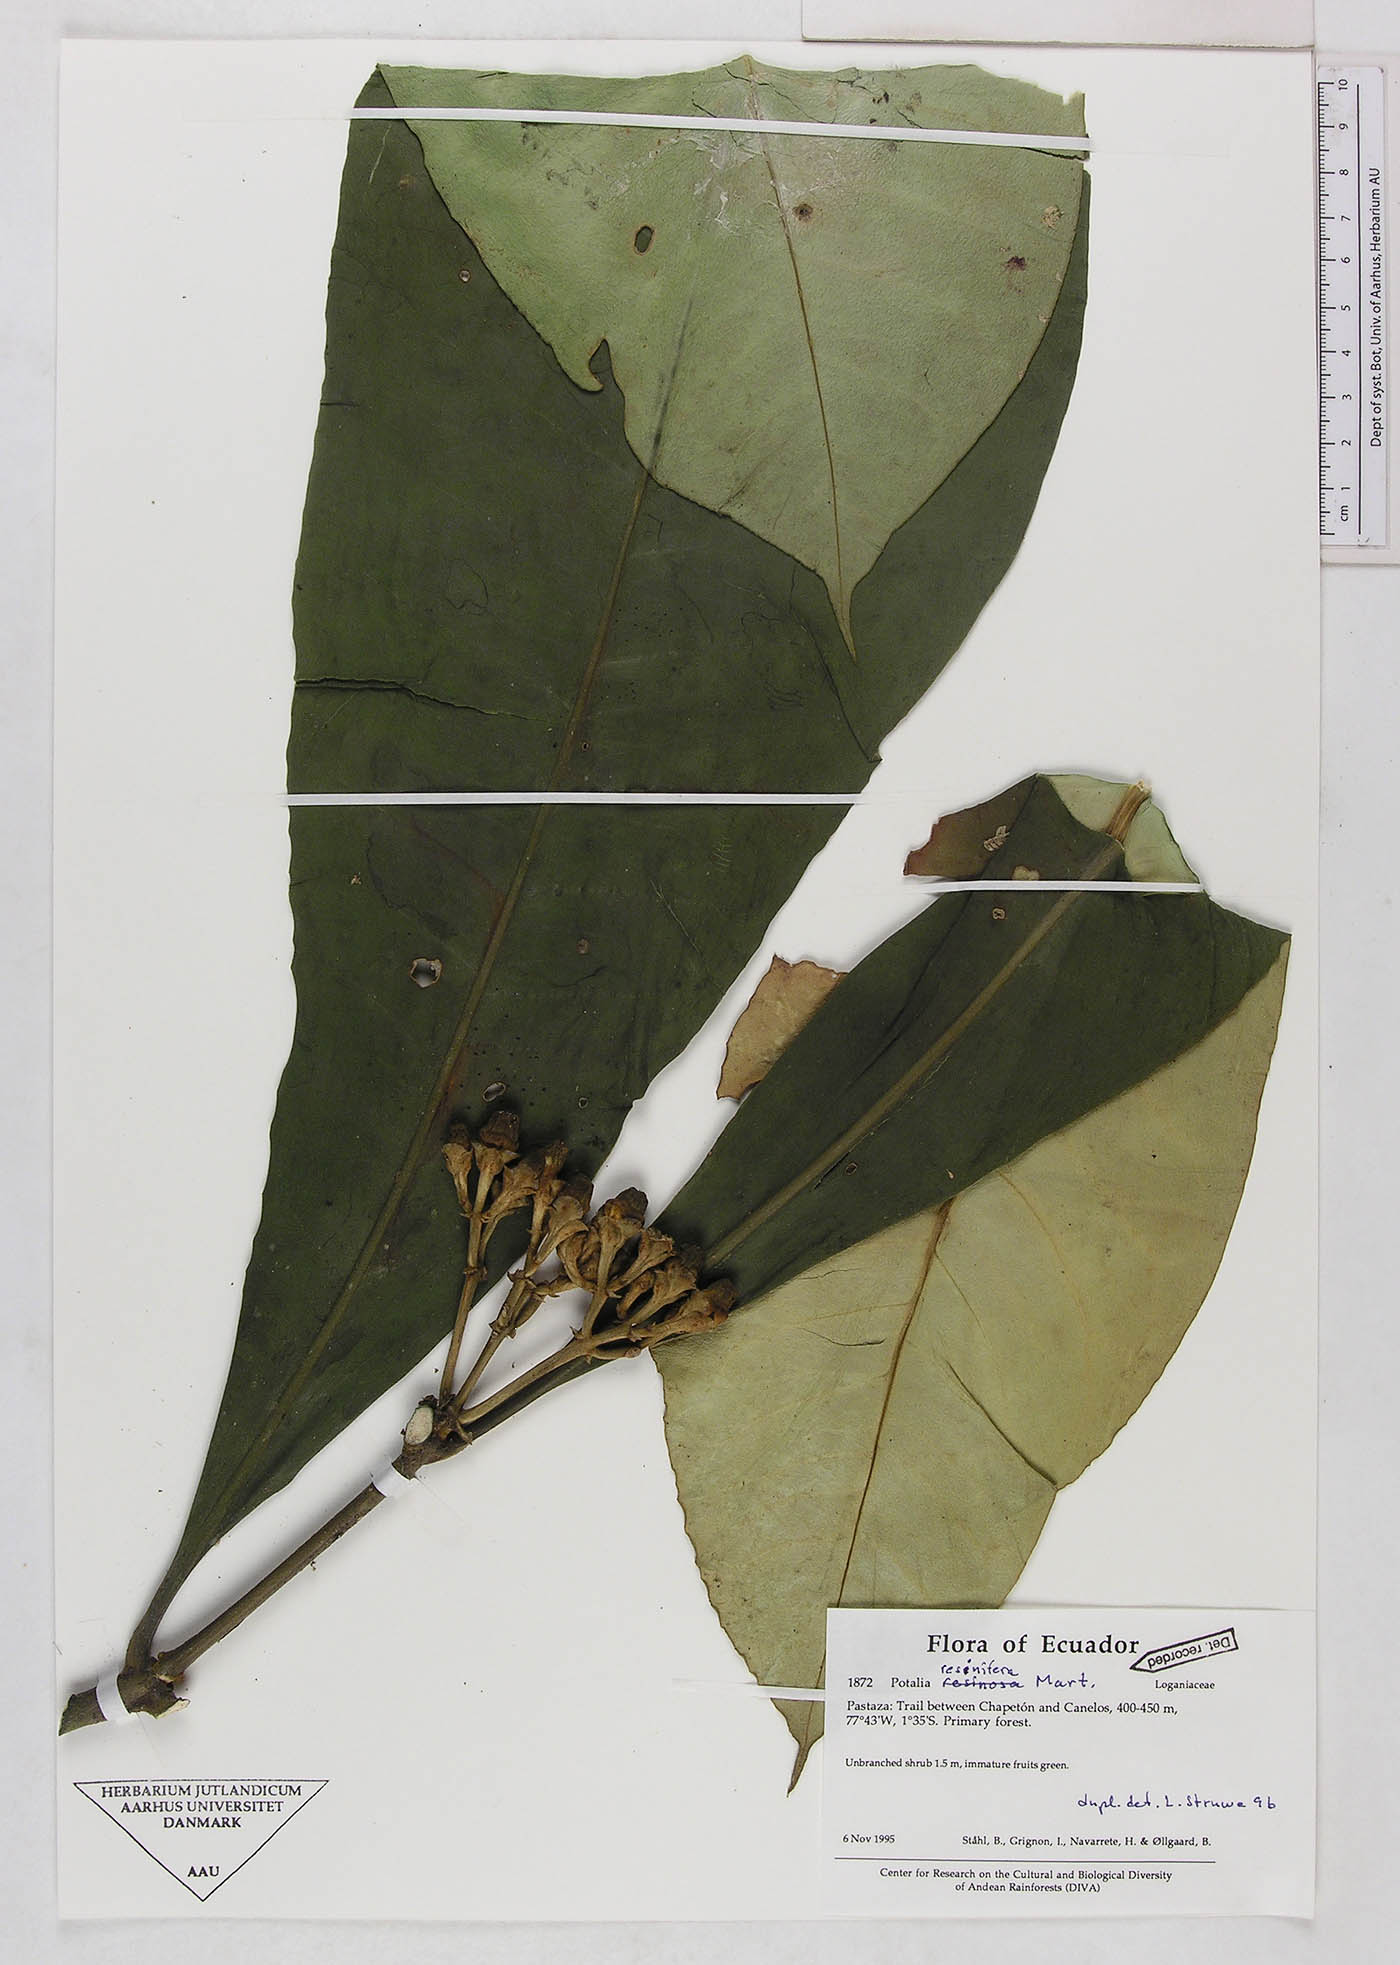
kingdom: Plantae
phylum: Tracheophyta
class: Magnoliopsida
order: Gentianales
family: Gentianaceae
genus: Potalia
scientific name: Potalia resinifera
